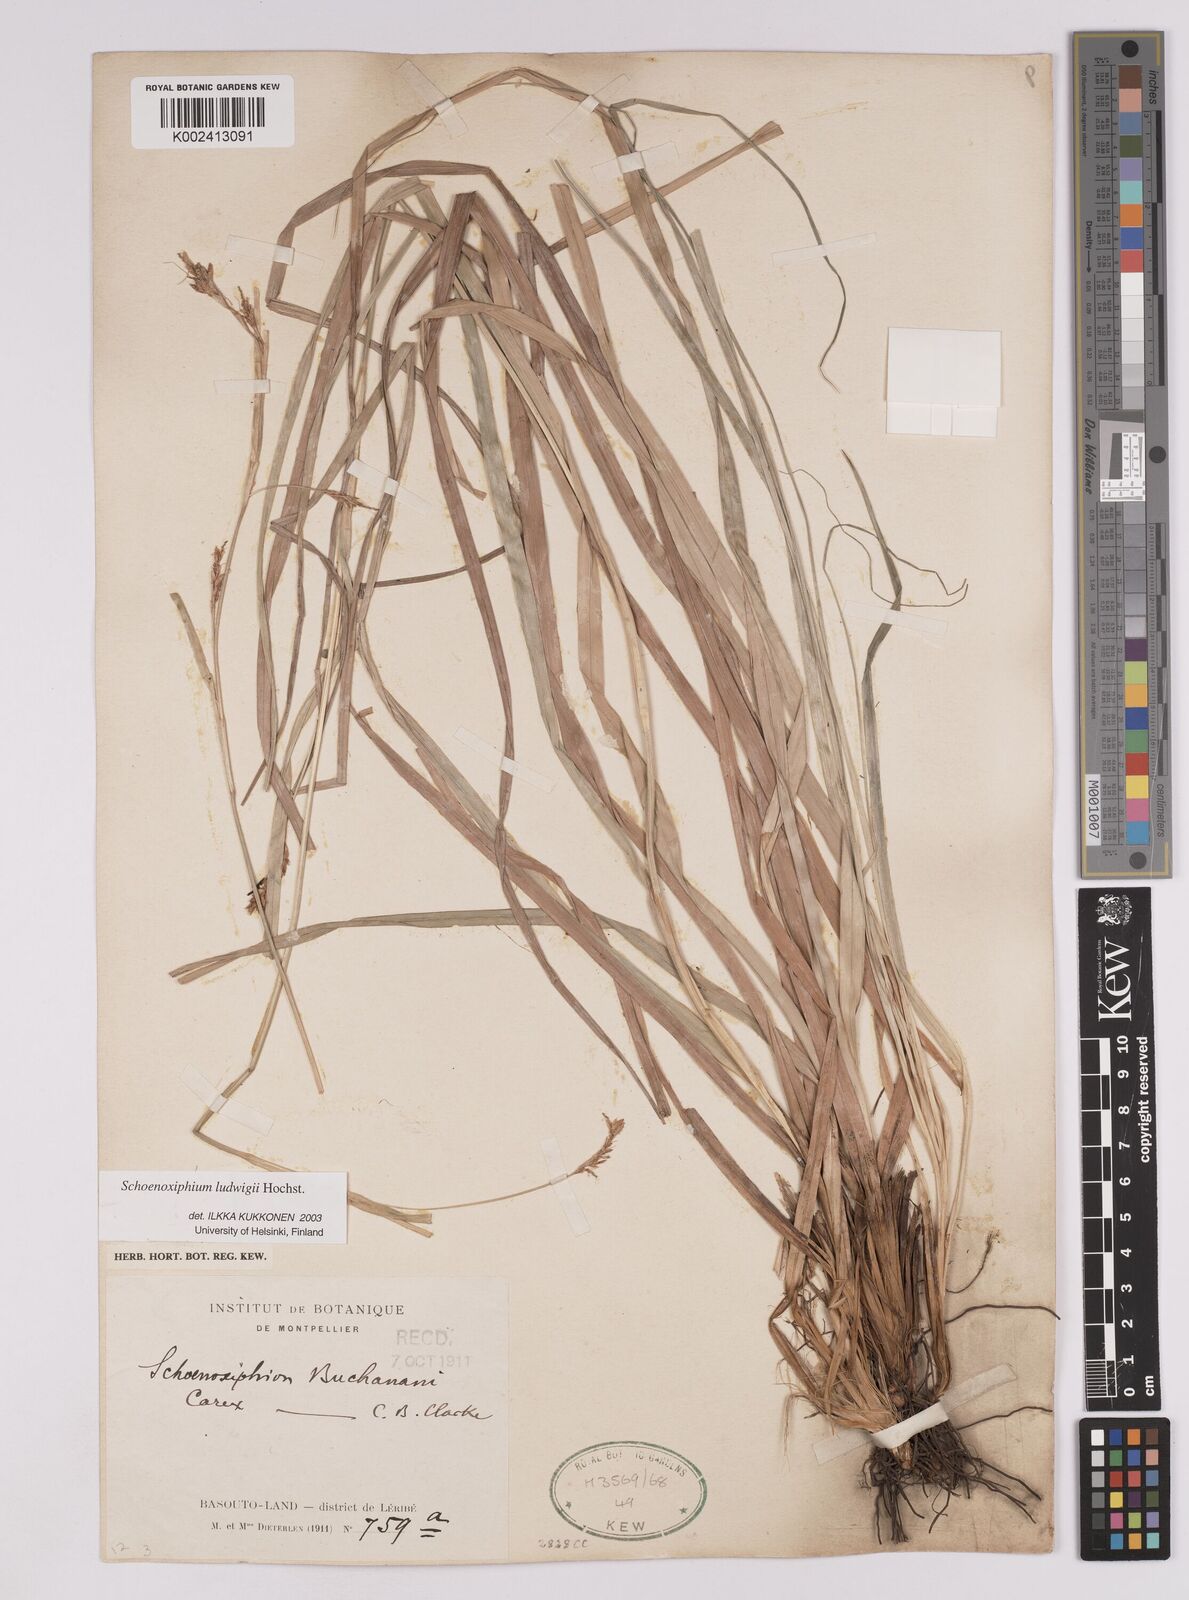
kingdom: Plantae
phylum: Tracheophyta
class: Liliopsida
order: Poales
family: Cyperaceae
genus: Carex
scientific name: Carex ludwigii
